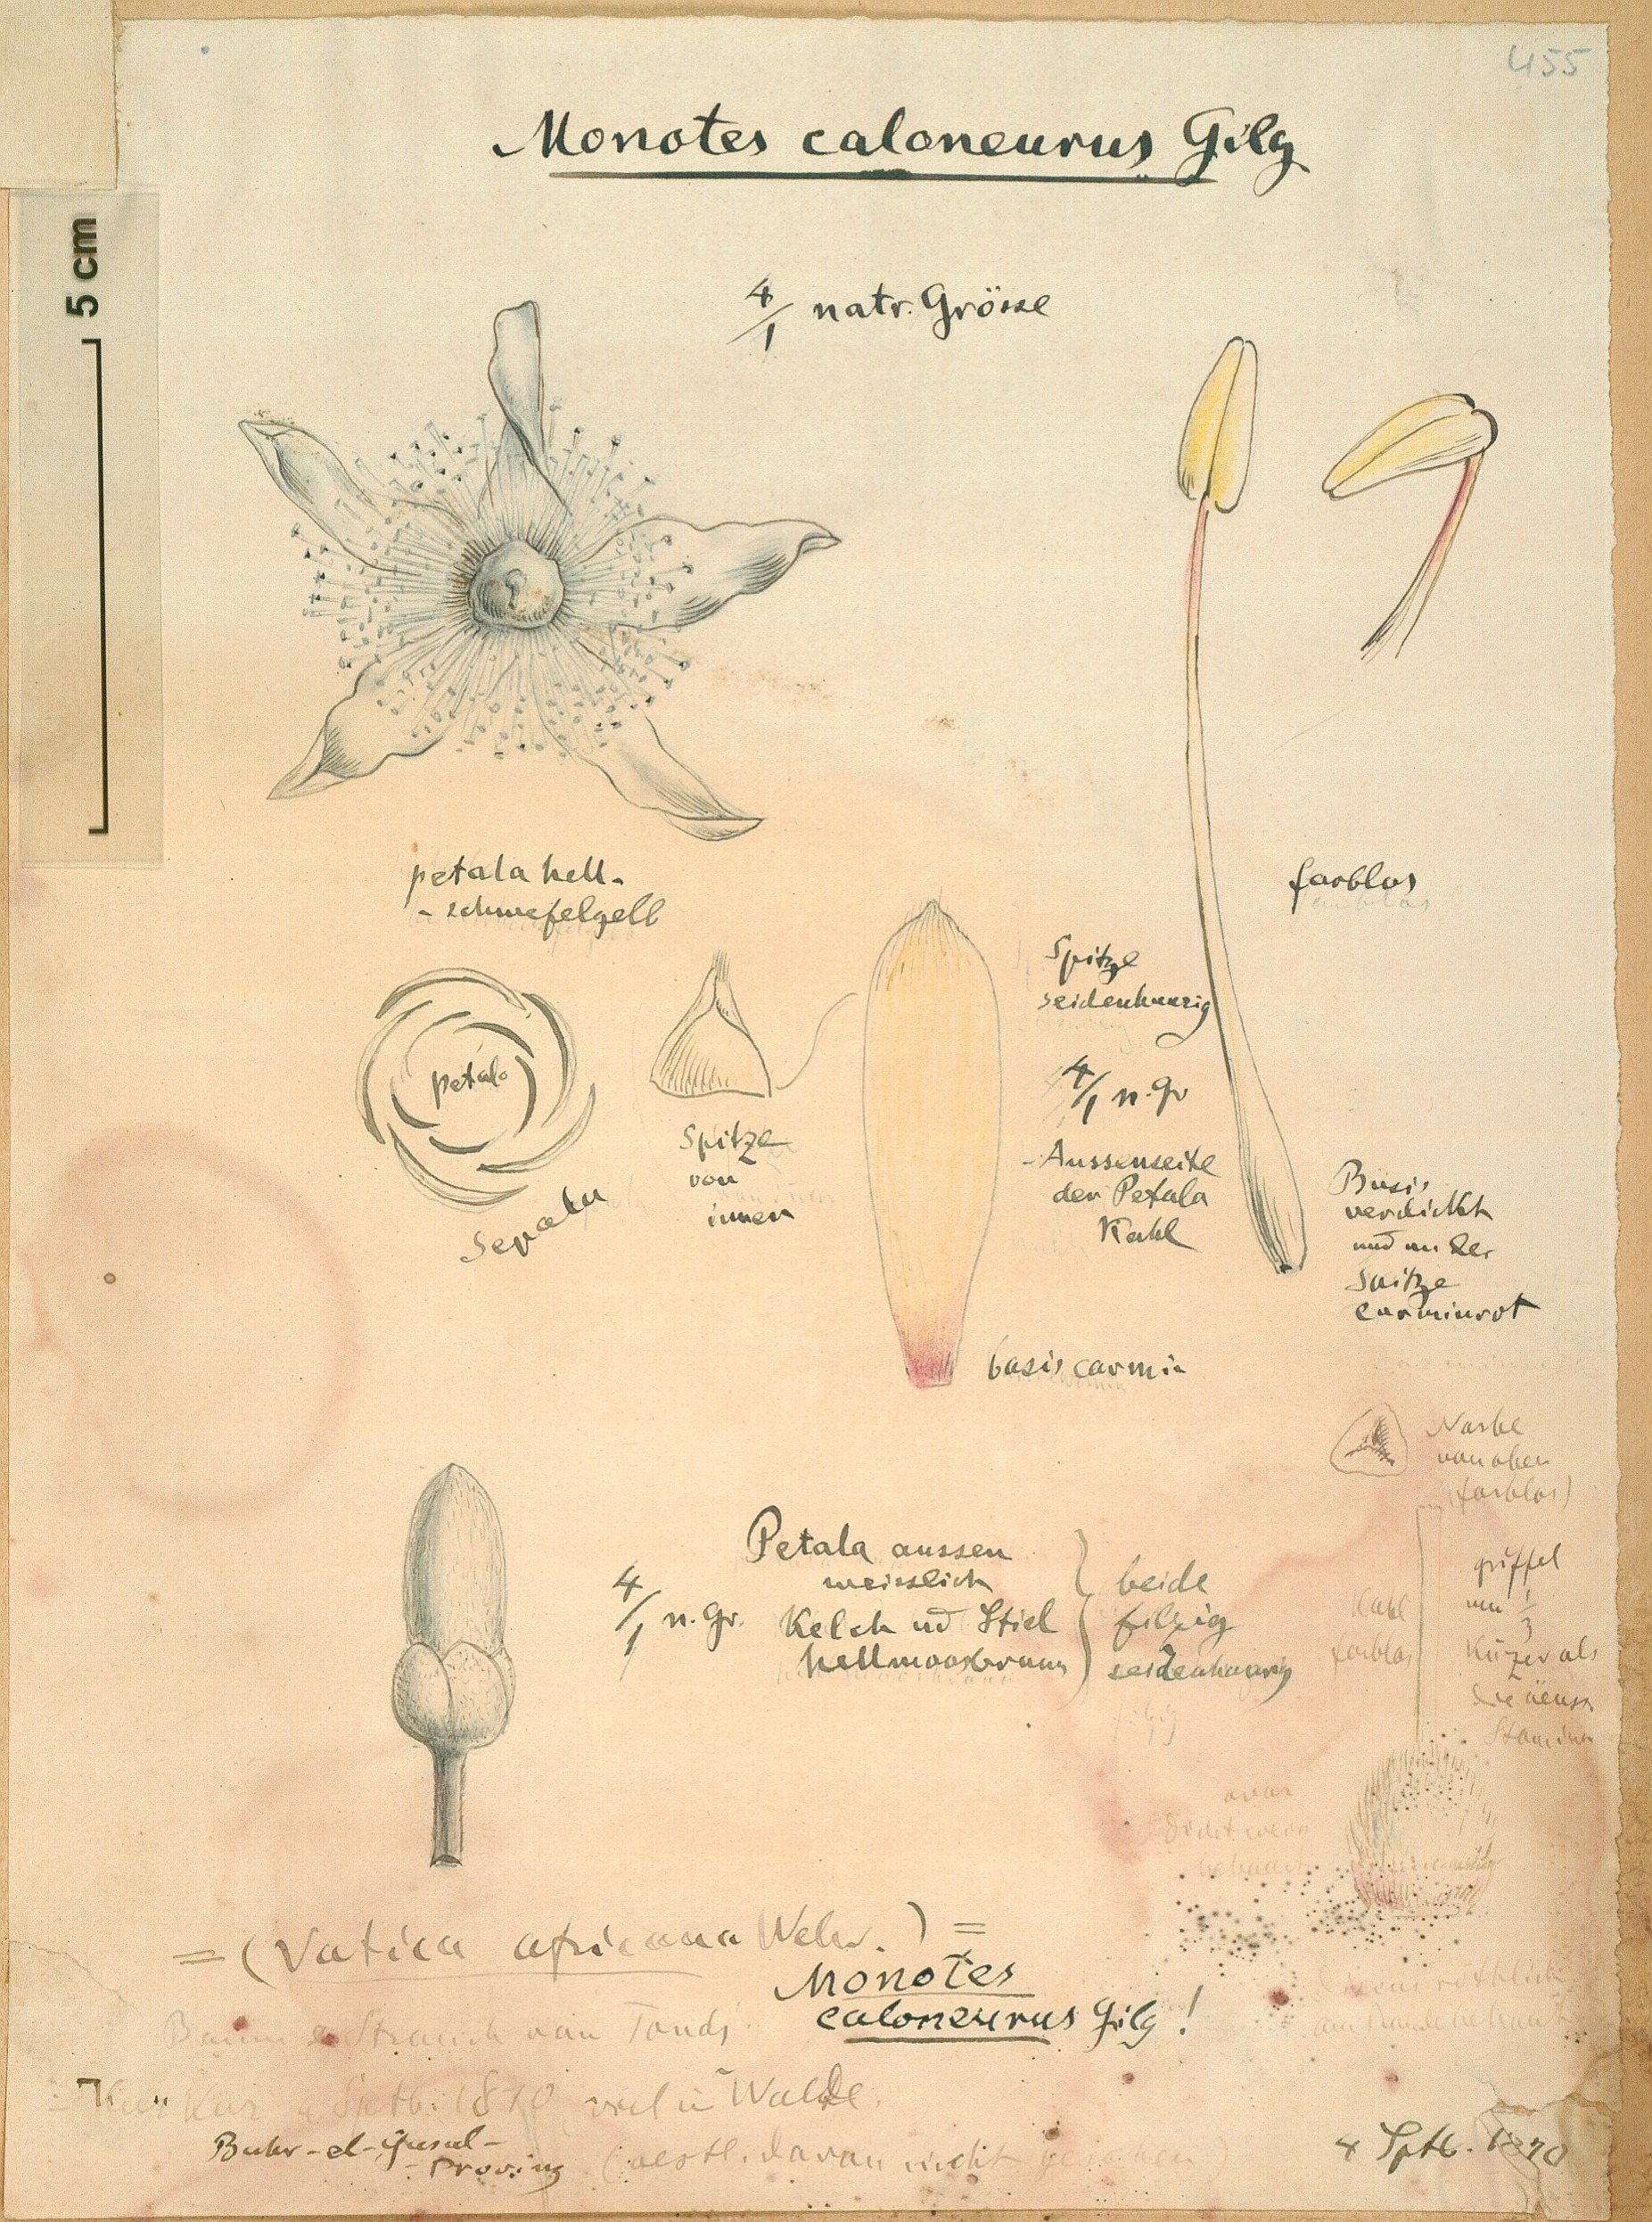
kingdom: Plantae
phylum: Tracheophyta
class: Magnoliopsida
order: Malvales
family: Dipterocarpaceae
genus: Monotes
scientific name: Monotes hypoleucus
